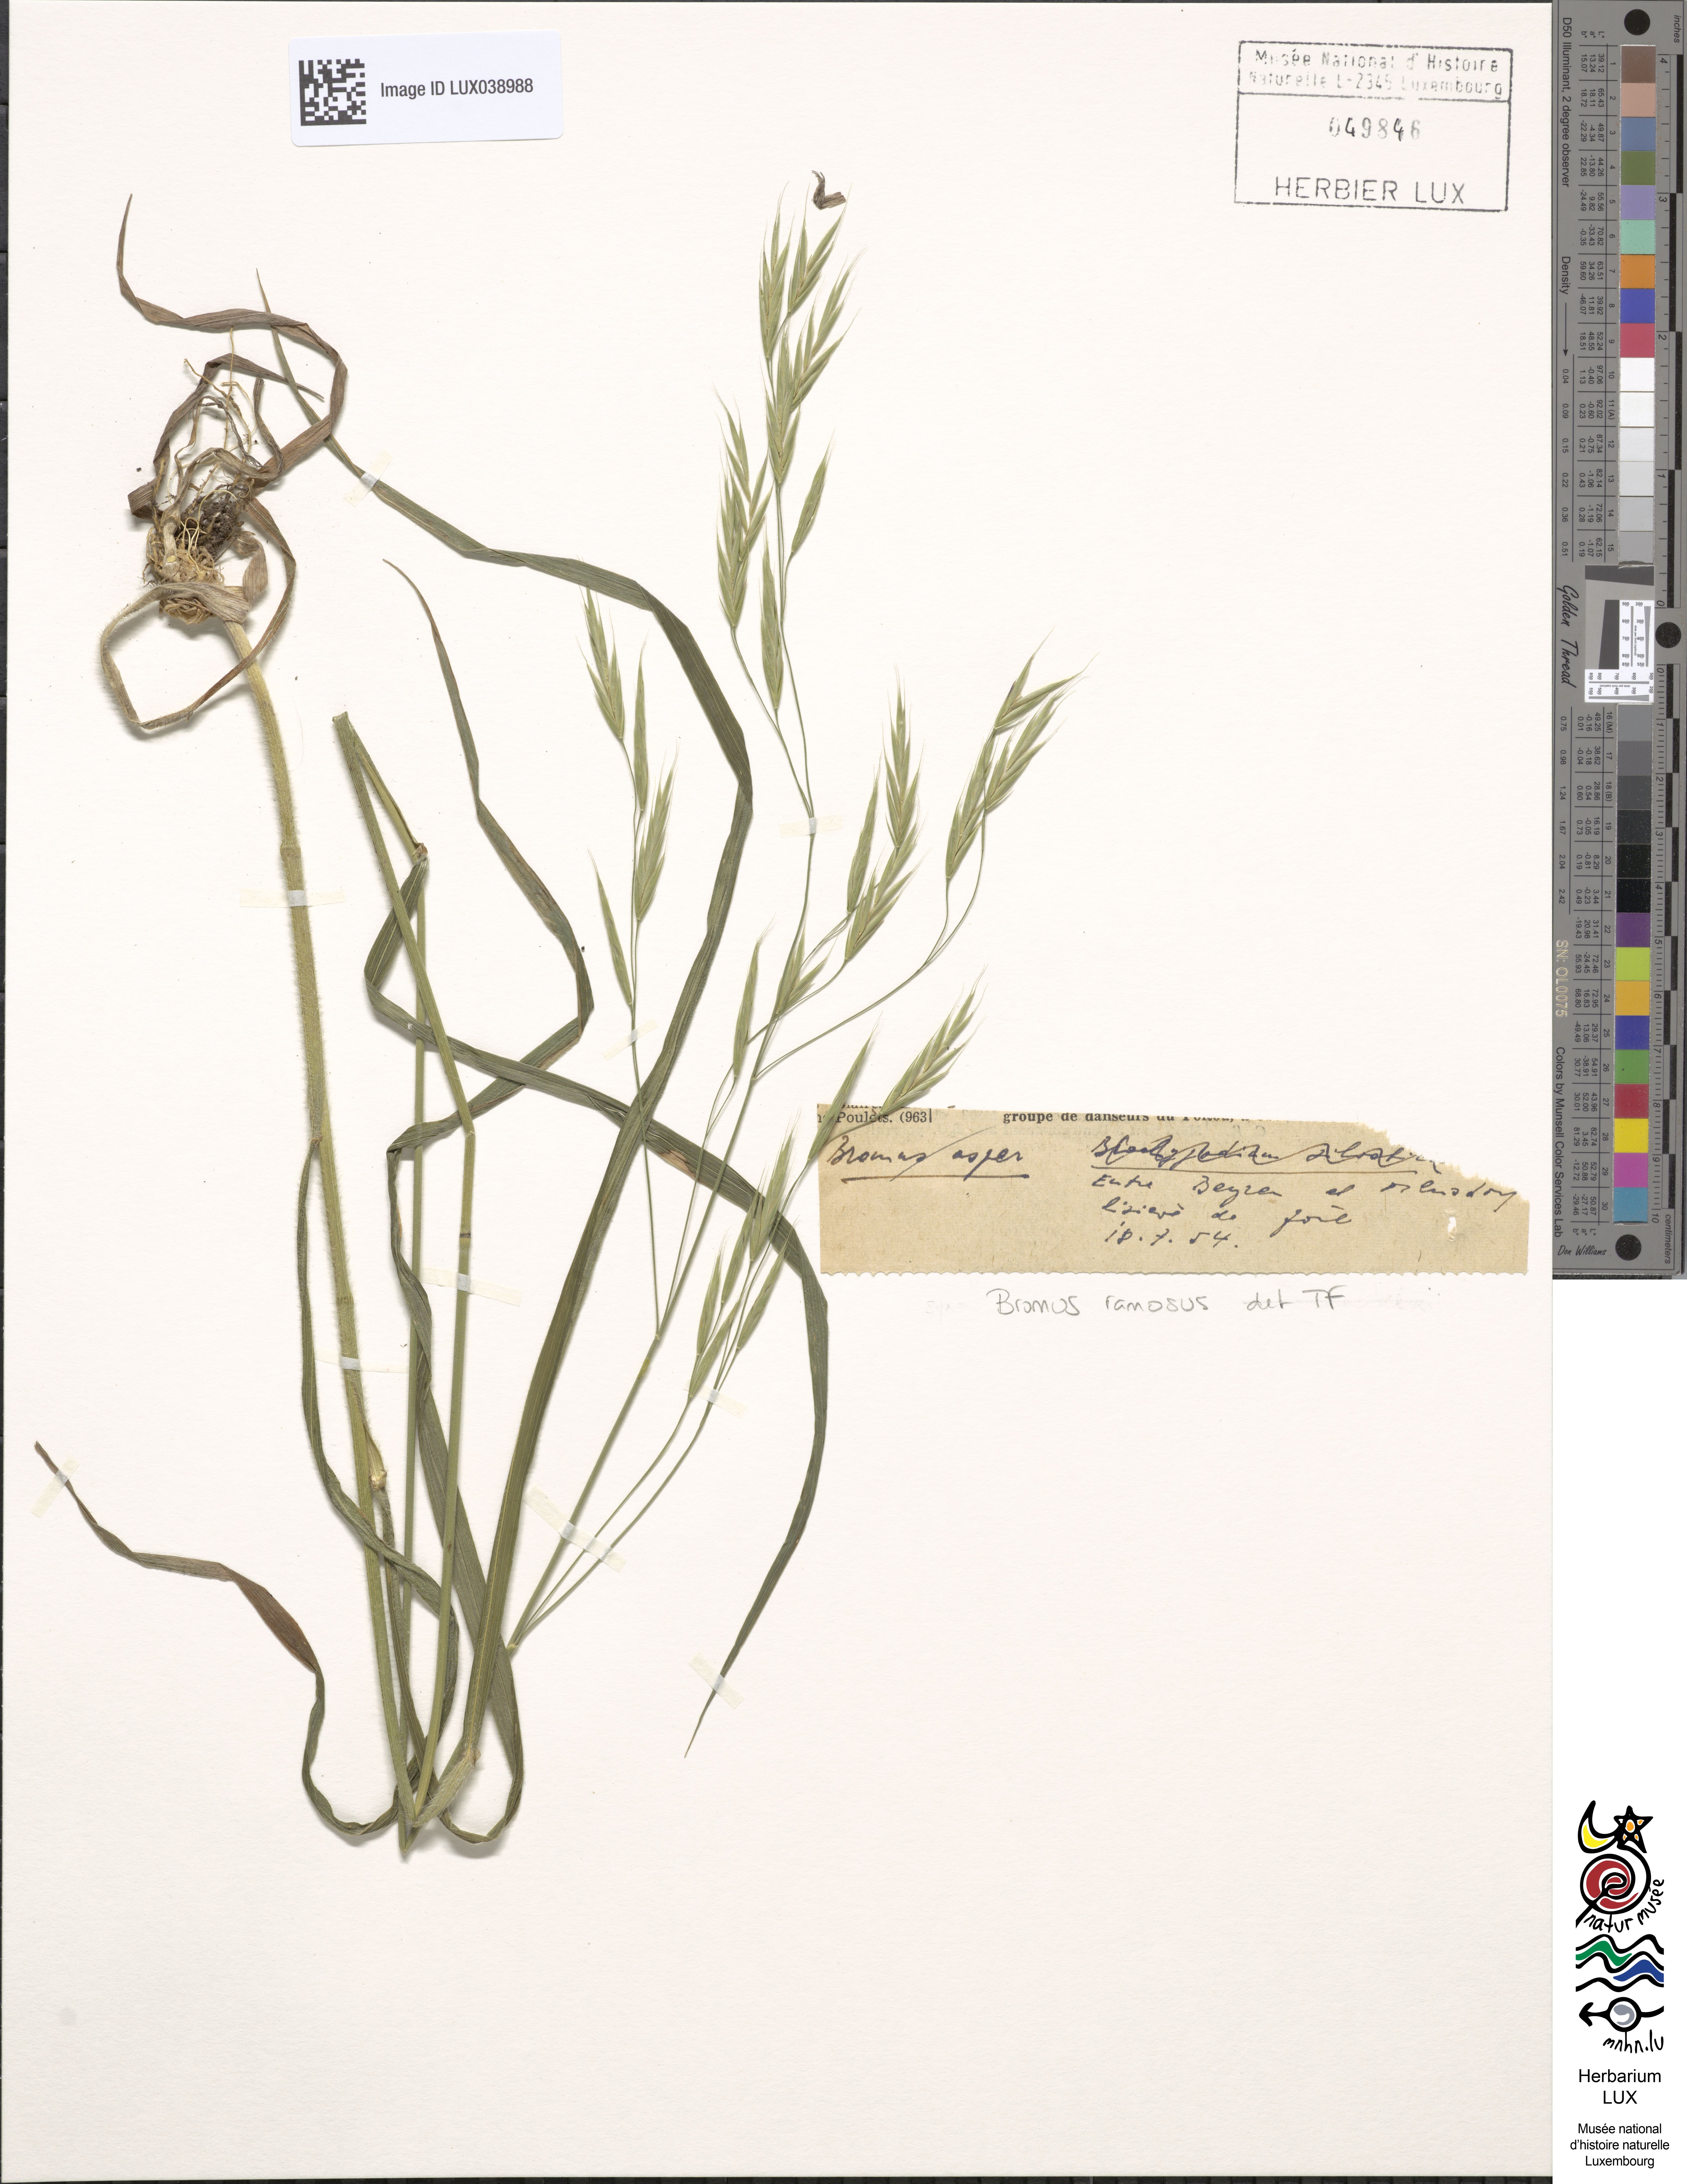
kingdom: Plantae
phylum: Tracheophyta
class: Liliopsida
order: Poales
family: Poaceae
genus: Bromus
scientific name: Bromus ramosus
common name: Hairy brome
